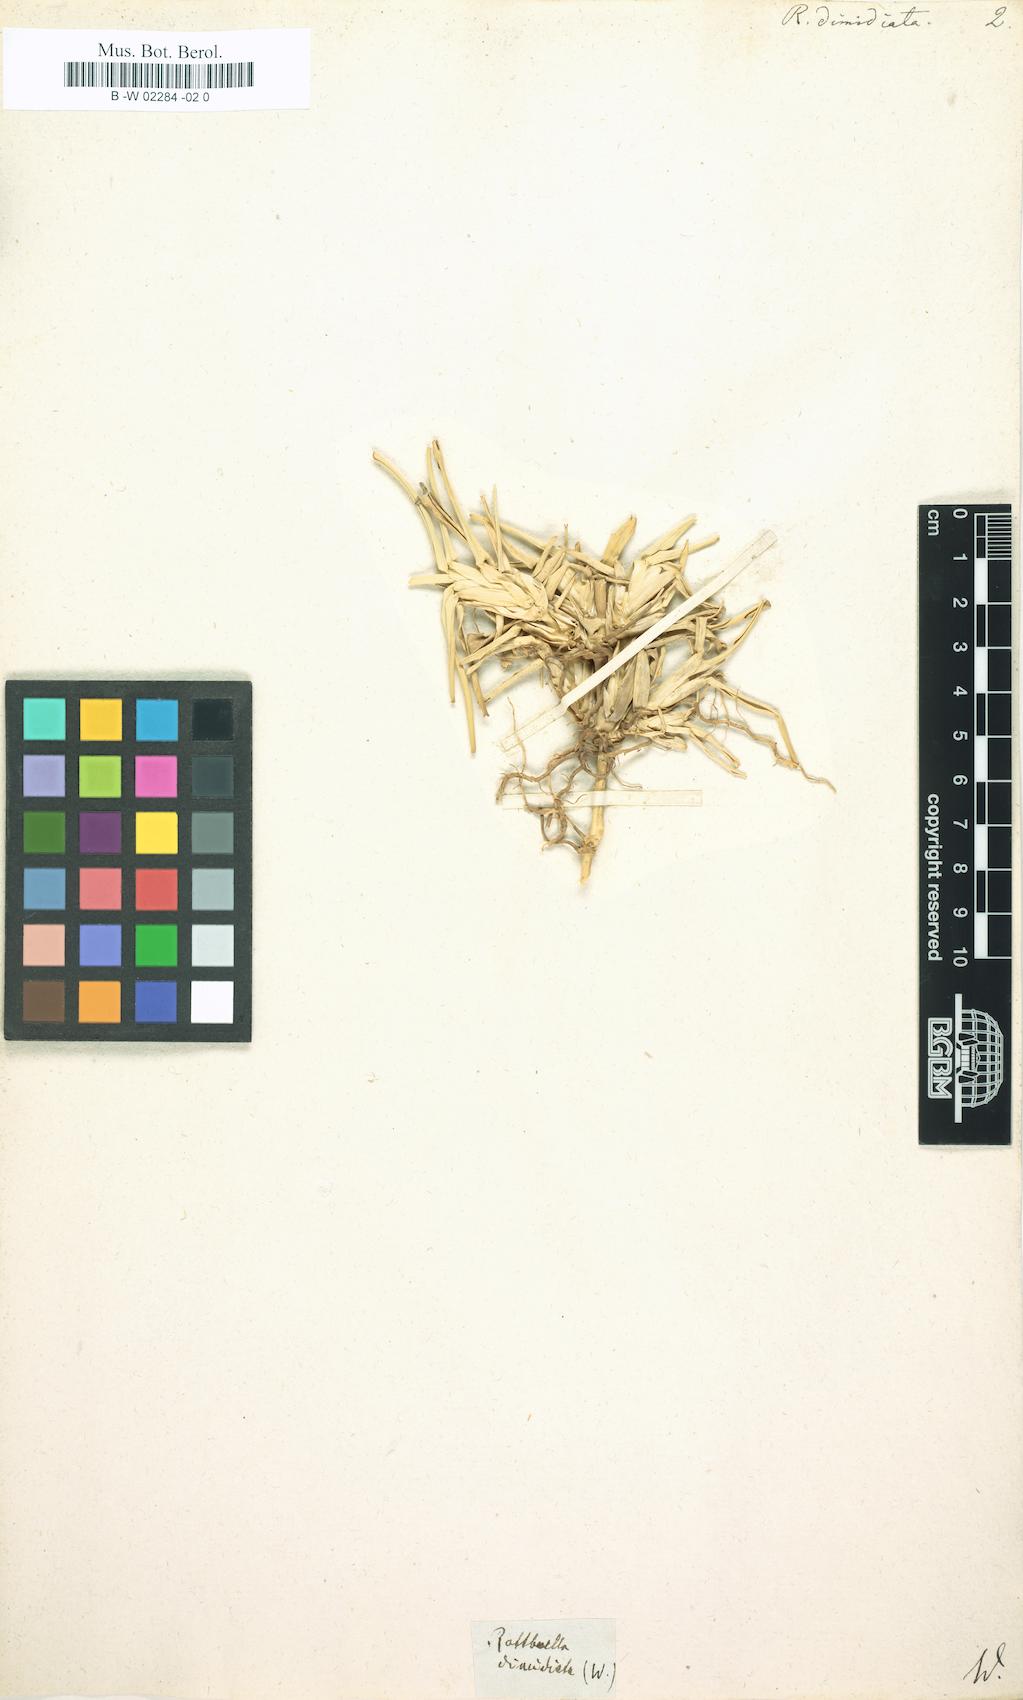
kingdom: Plantae
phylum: Tracheophyta
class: Liliopsida
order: Poales
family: Poaceae
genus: Stenotaphrum
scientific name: Stenotaphrum
